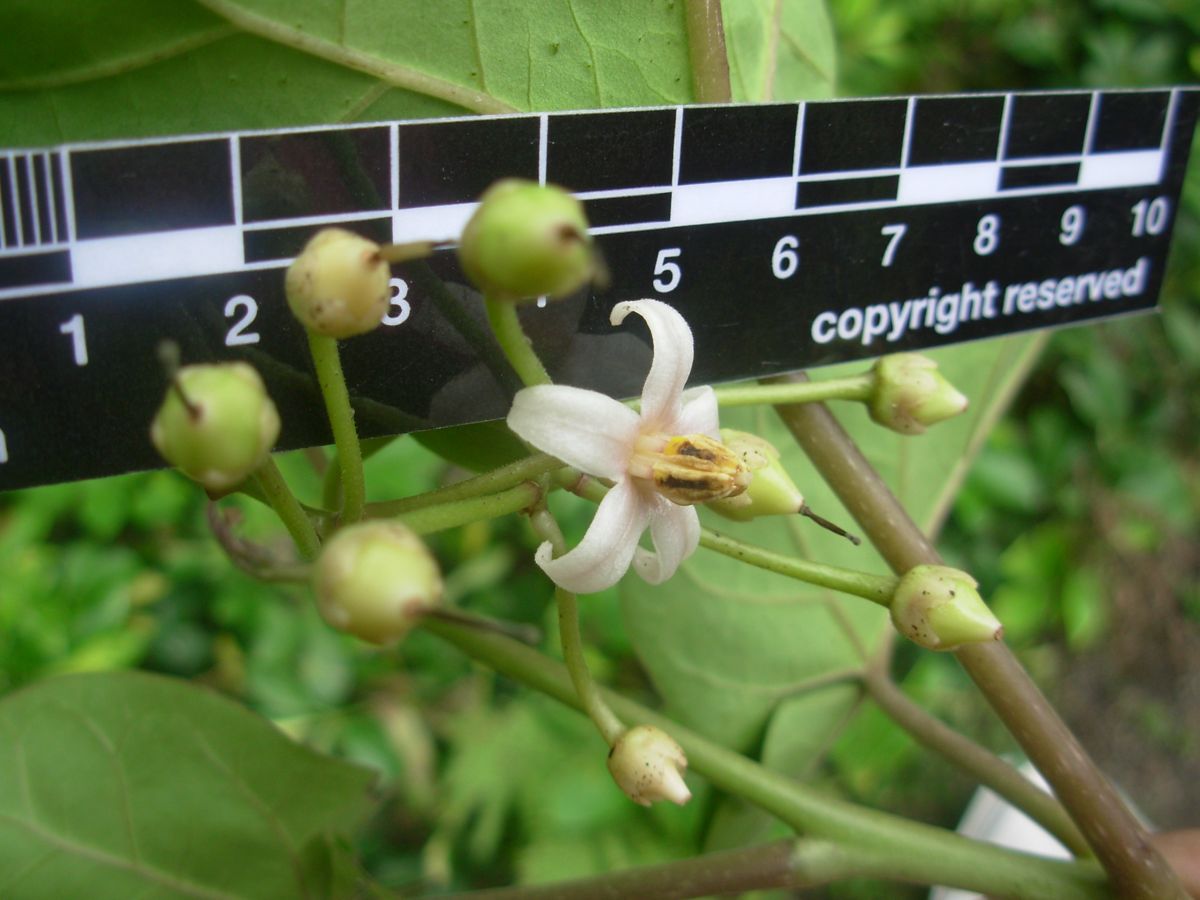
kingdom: Plantae
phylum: Tracheophyta
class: Magnoliopsida
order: Solanales
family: Solanaceae
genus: Solanum
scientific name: Solanum betaceum
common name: Tamarillo
